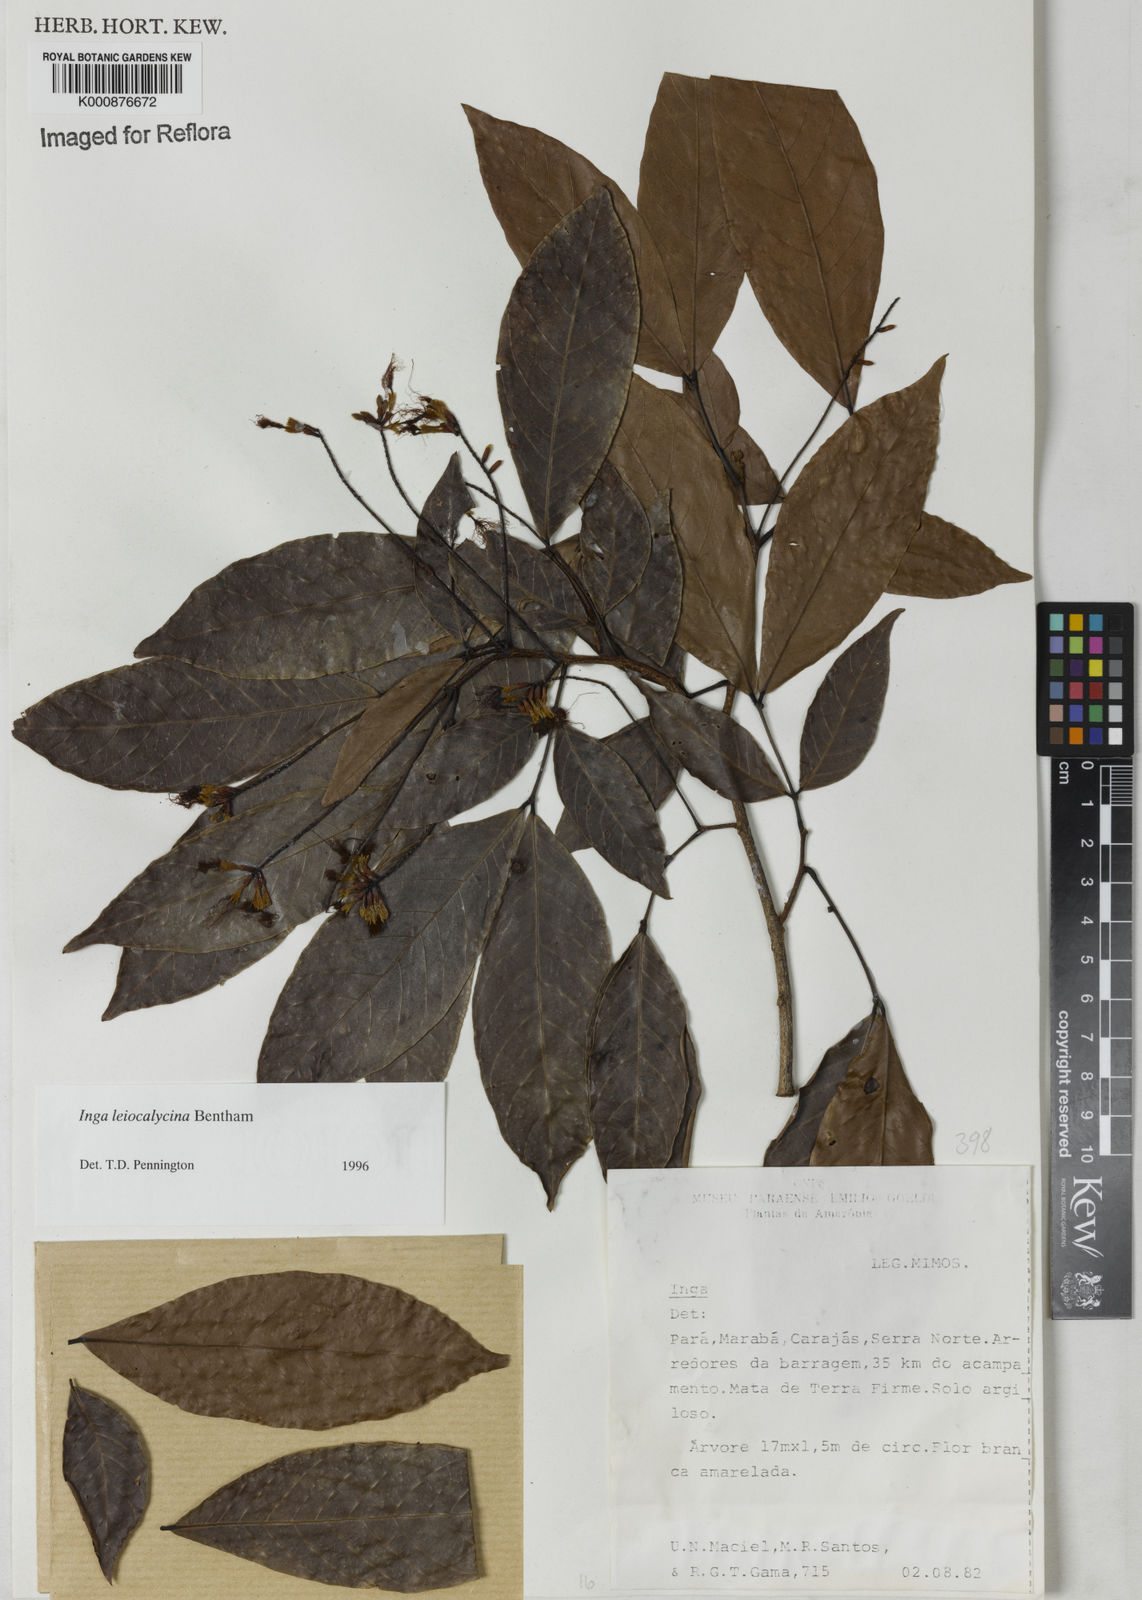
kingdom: Plantae
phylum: Tracheophyta
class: Magnoliopsida
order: Fabales
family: Fabaceae
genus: Inga
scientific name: Inga laevigata
